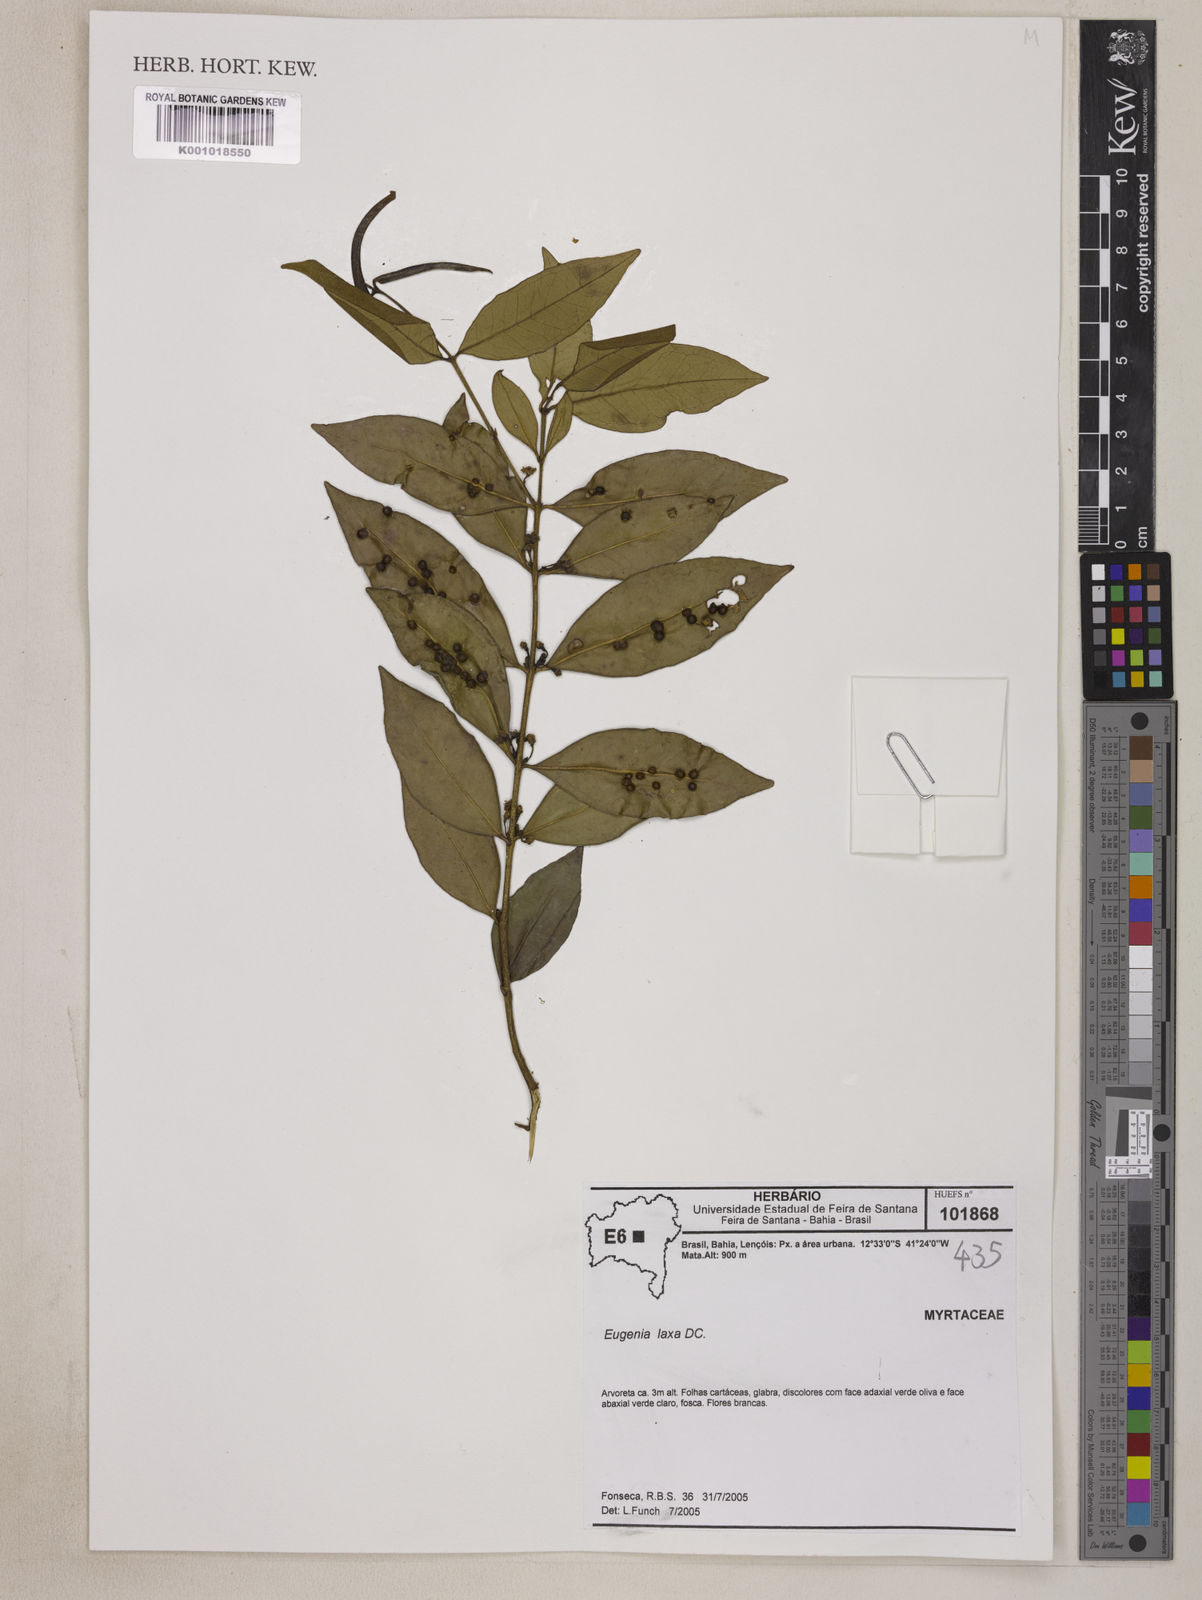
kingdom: Plantae
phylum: Tracheophyta
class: Magnoliopsida
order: Myrtales
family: Myrtaceae
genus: Eugenia
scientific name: Eugenia laxa
